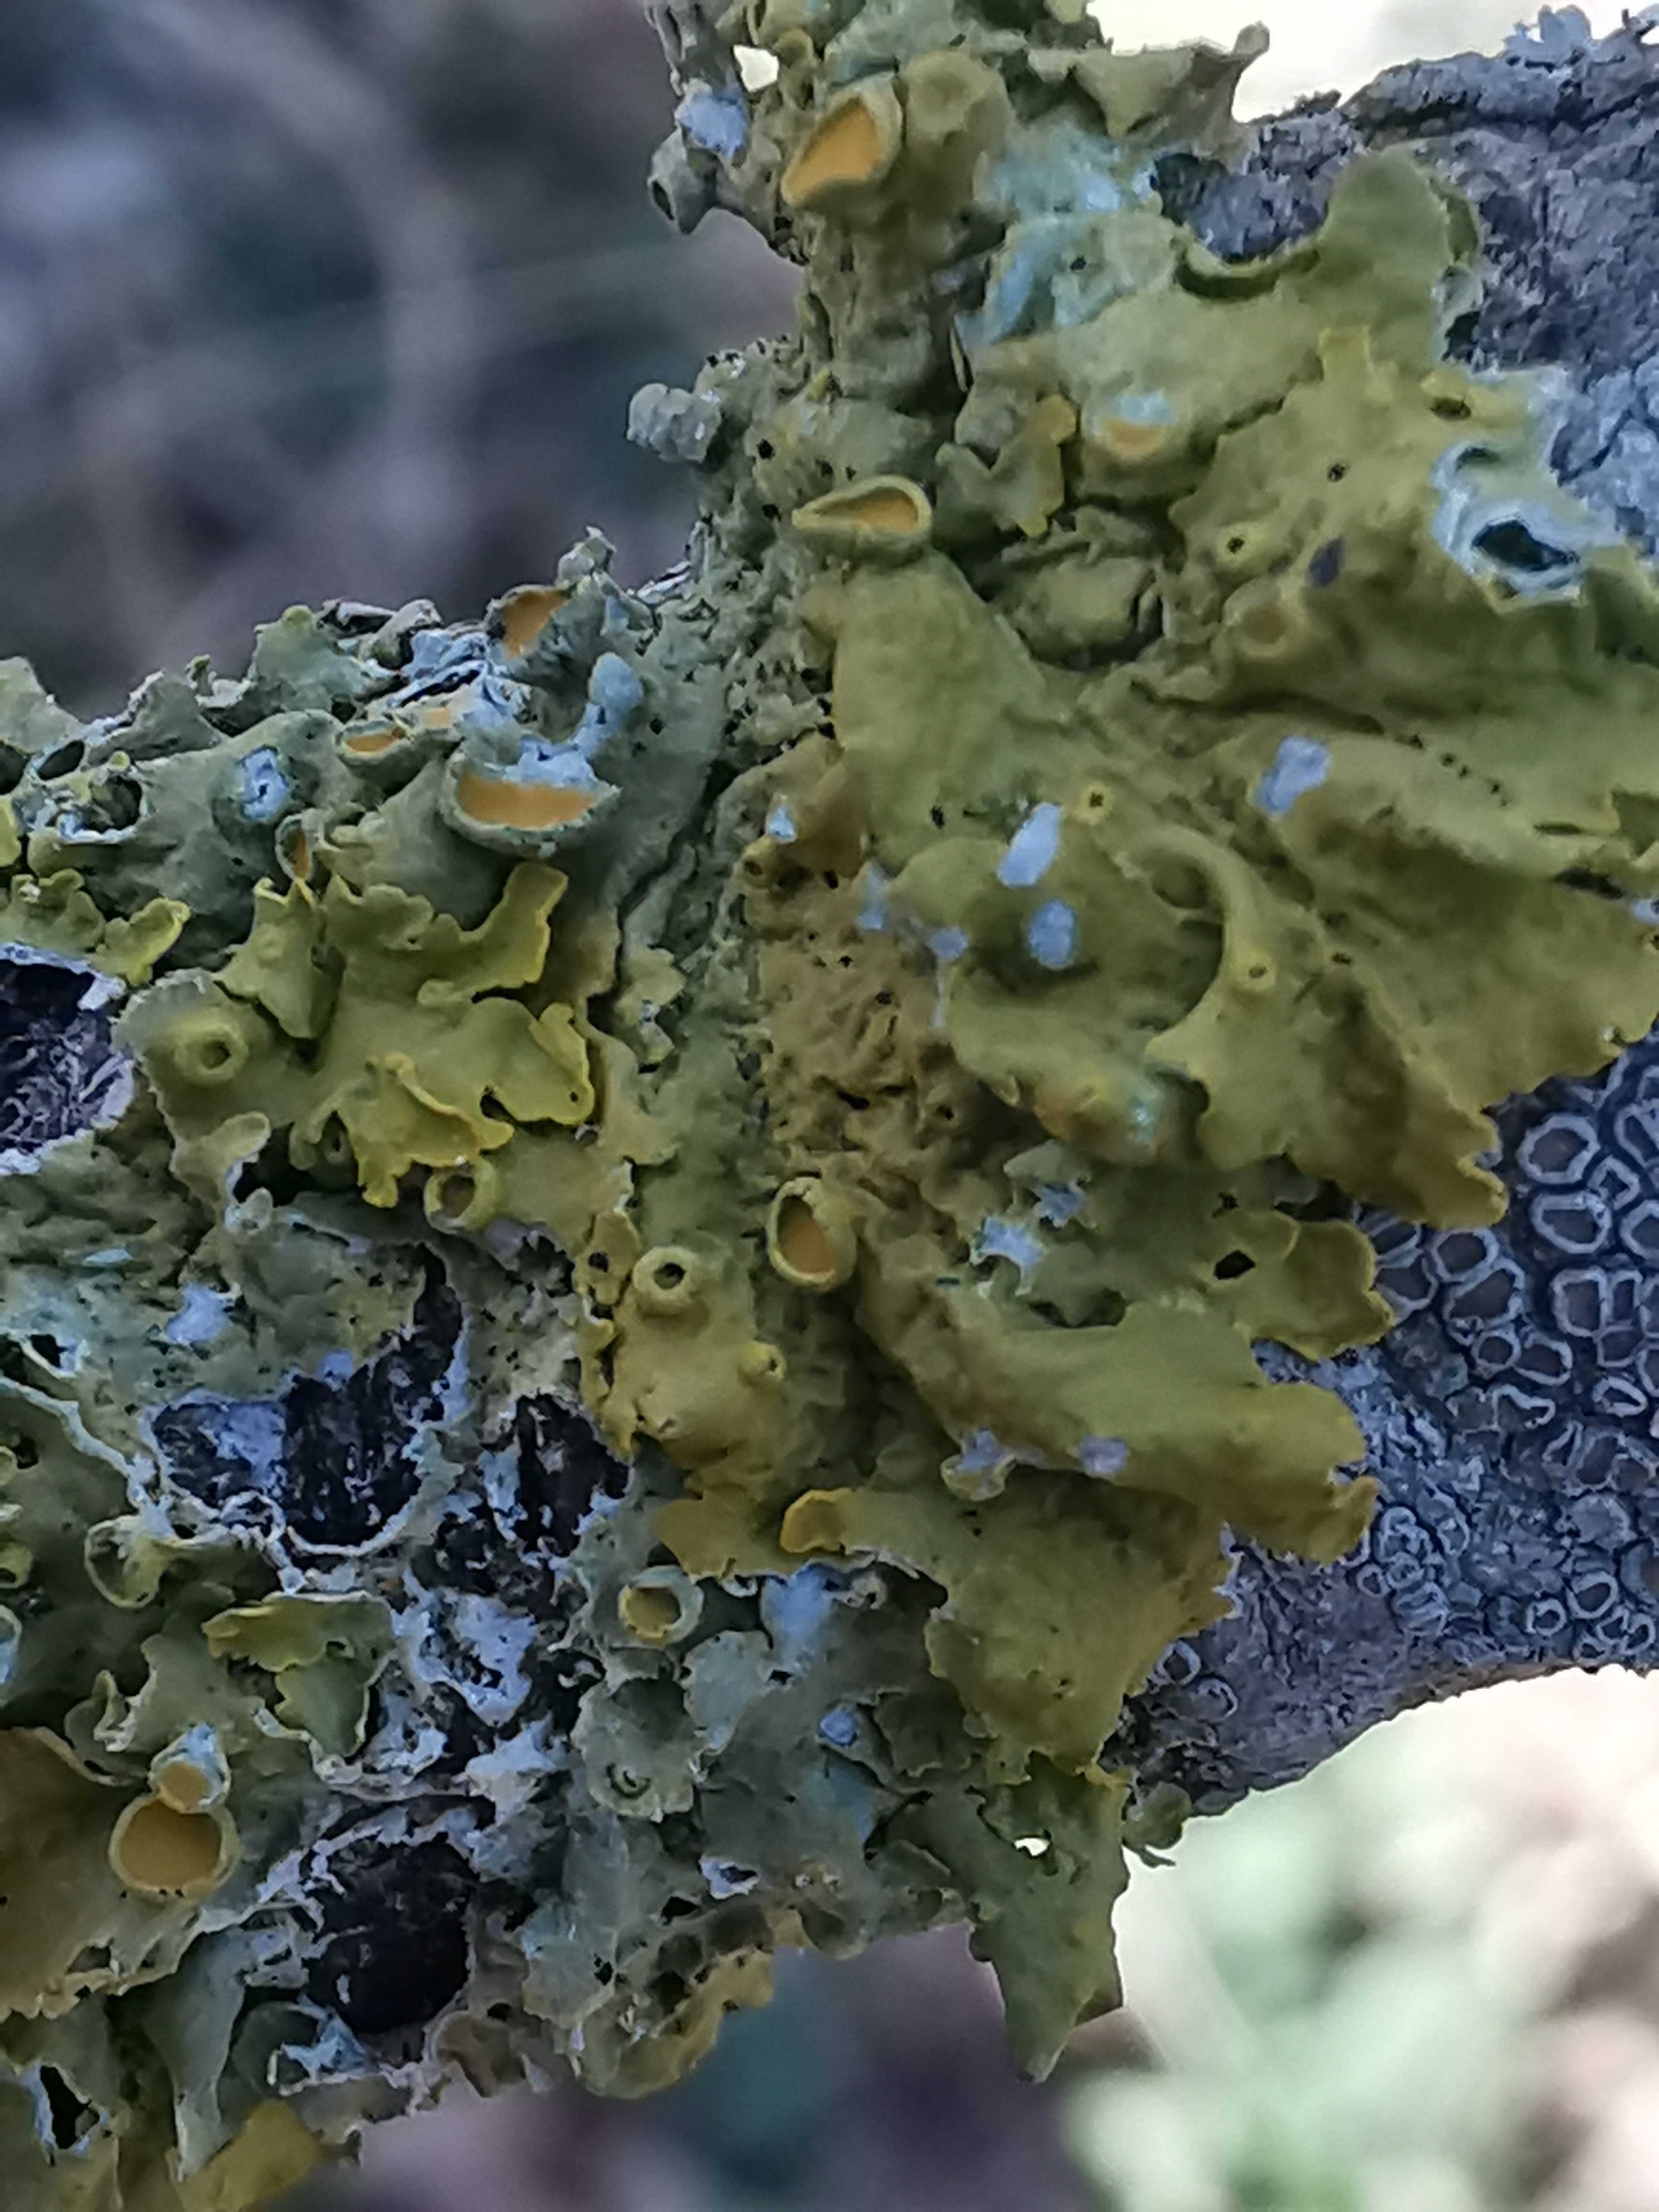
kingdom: Fungi
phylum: Ascomycota
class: Lecanoromycetes
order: Teloschistales
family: Teloschistaceae
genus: Xanthoria
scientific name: Xanthoria parietina
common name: almindelig væggelav
